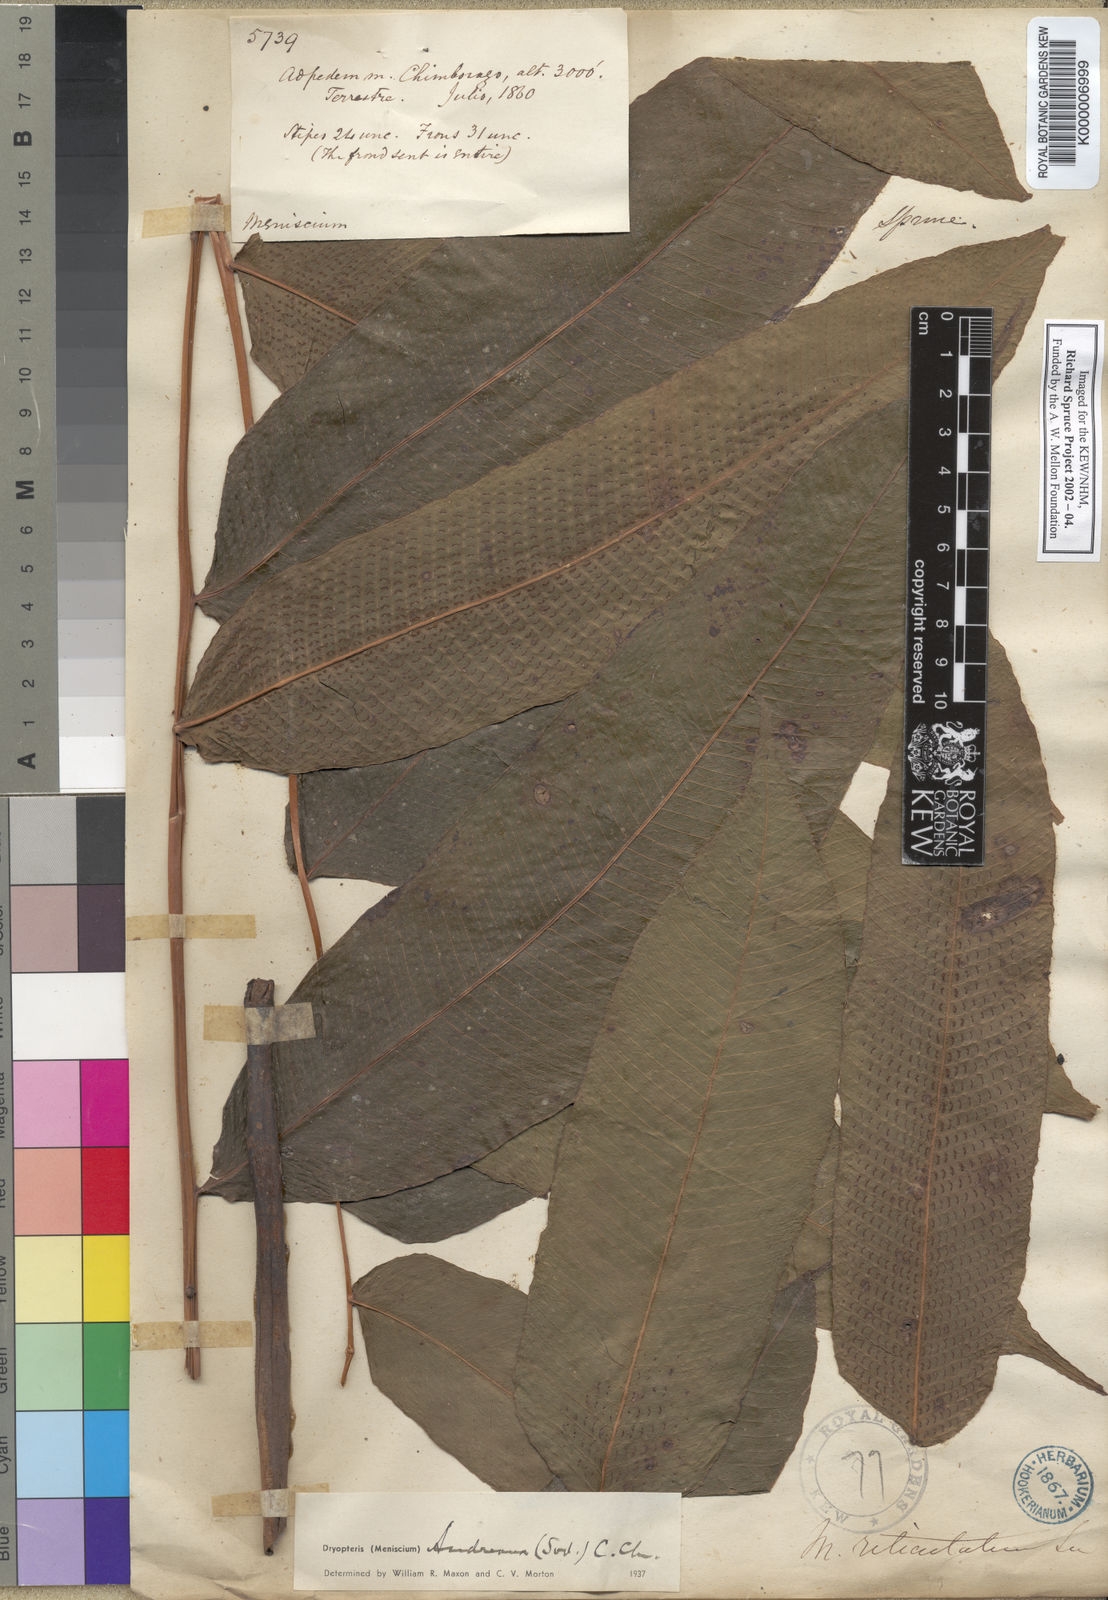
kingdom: Plantae
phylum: Tracheophyta
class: Polypodiopsida
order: Polypodiales
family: Thelypteridaceae
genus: Meniscium
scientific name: Meniscium
